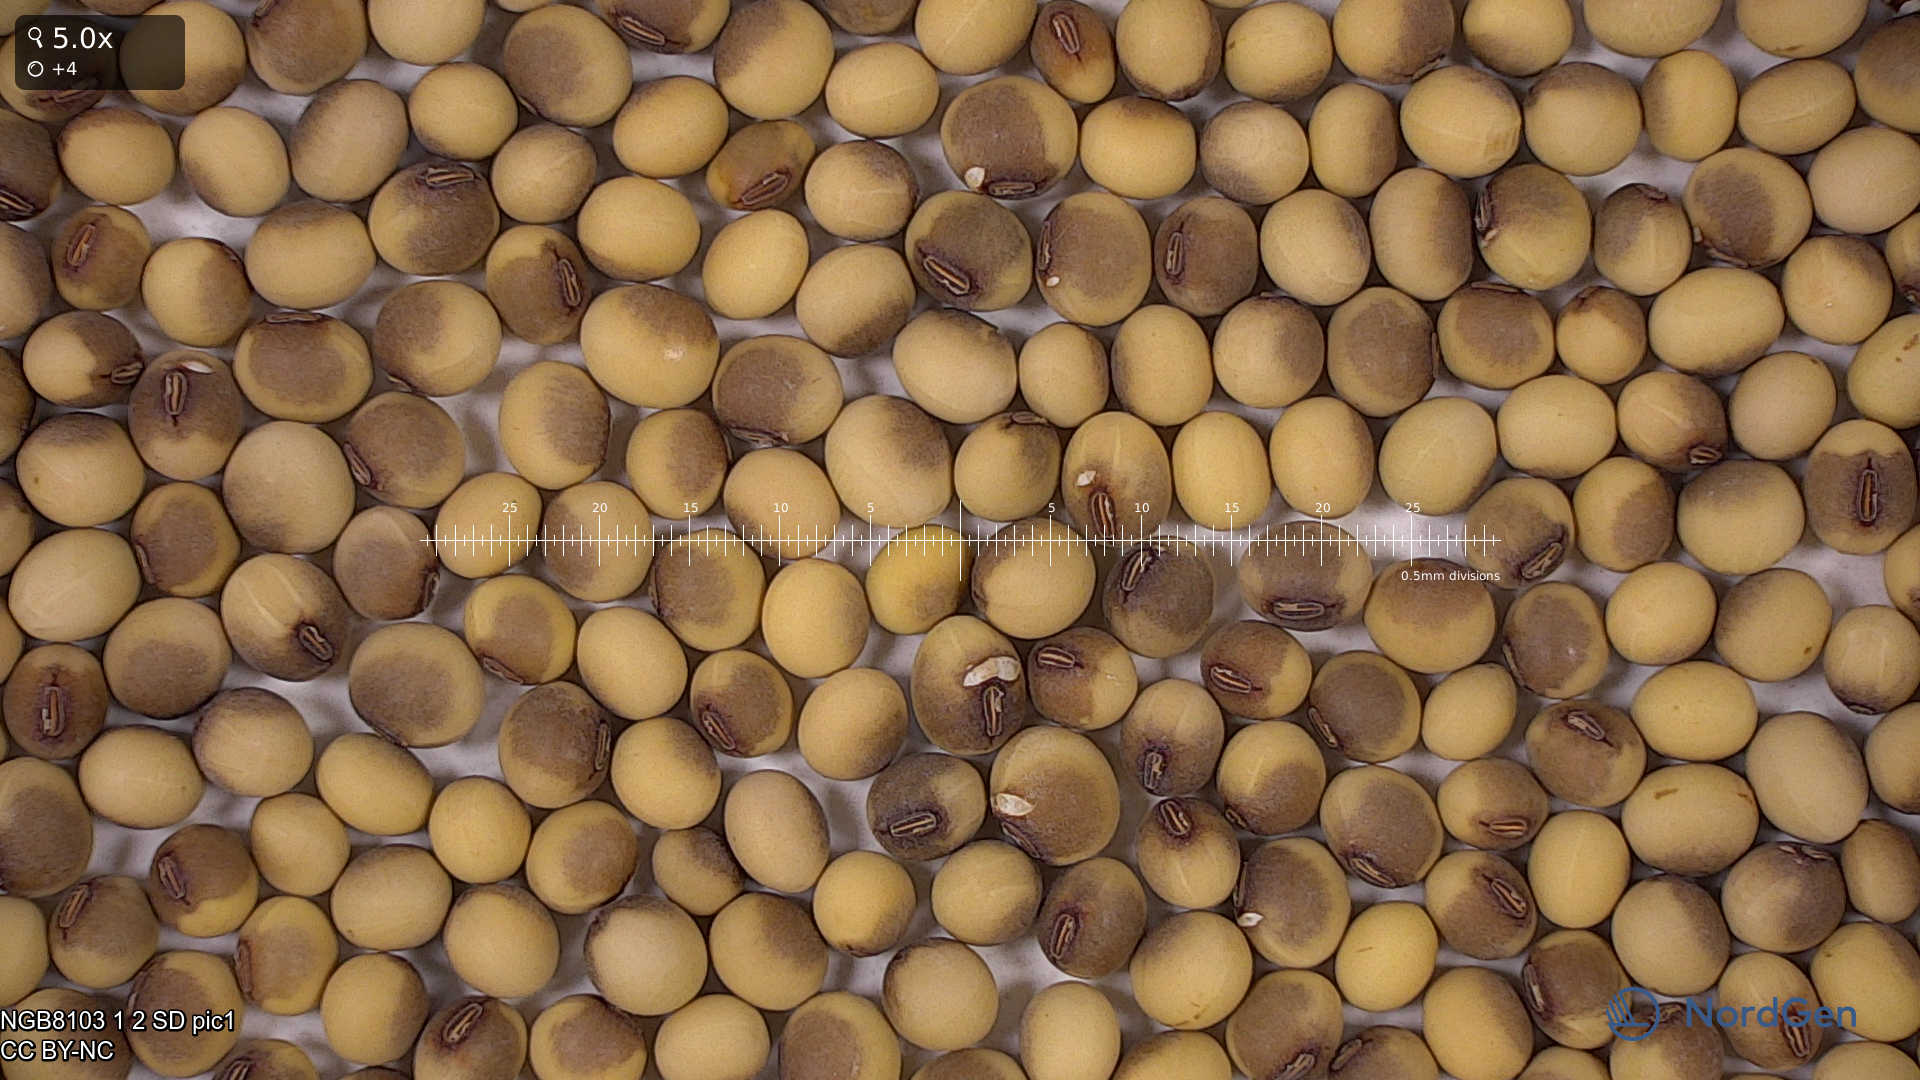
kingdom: Plantae
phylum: Tracheophyta
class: Magnoliopsida
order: Fabales
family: Fabaceae
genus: Glycine
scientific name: Glycine max
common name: Soya-bean
